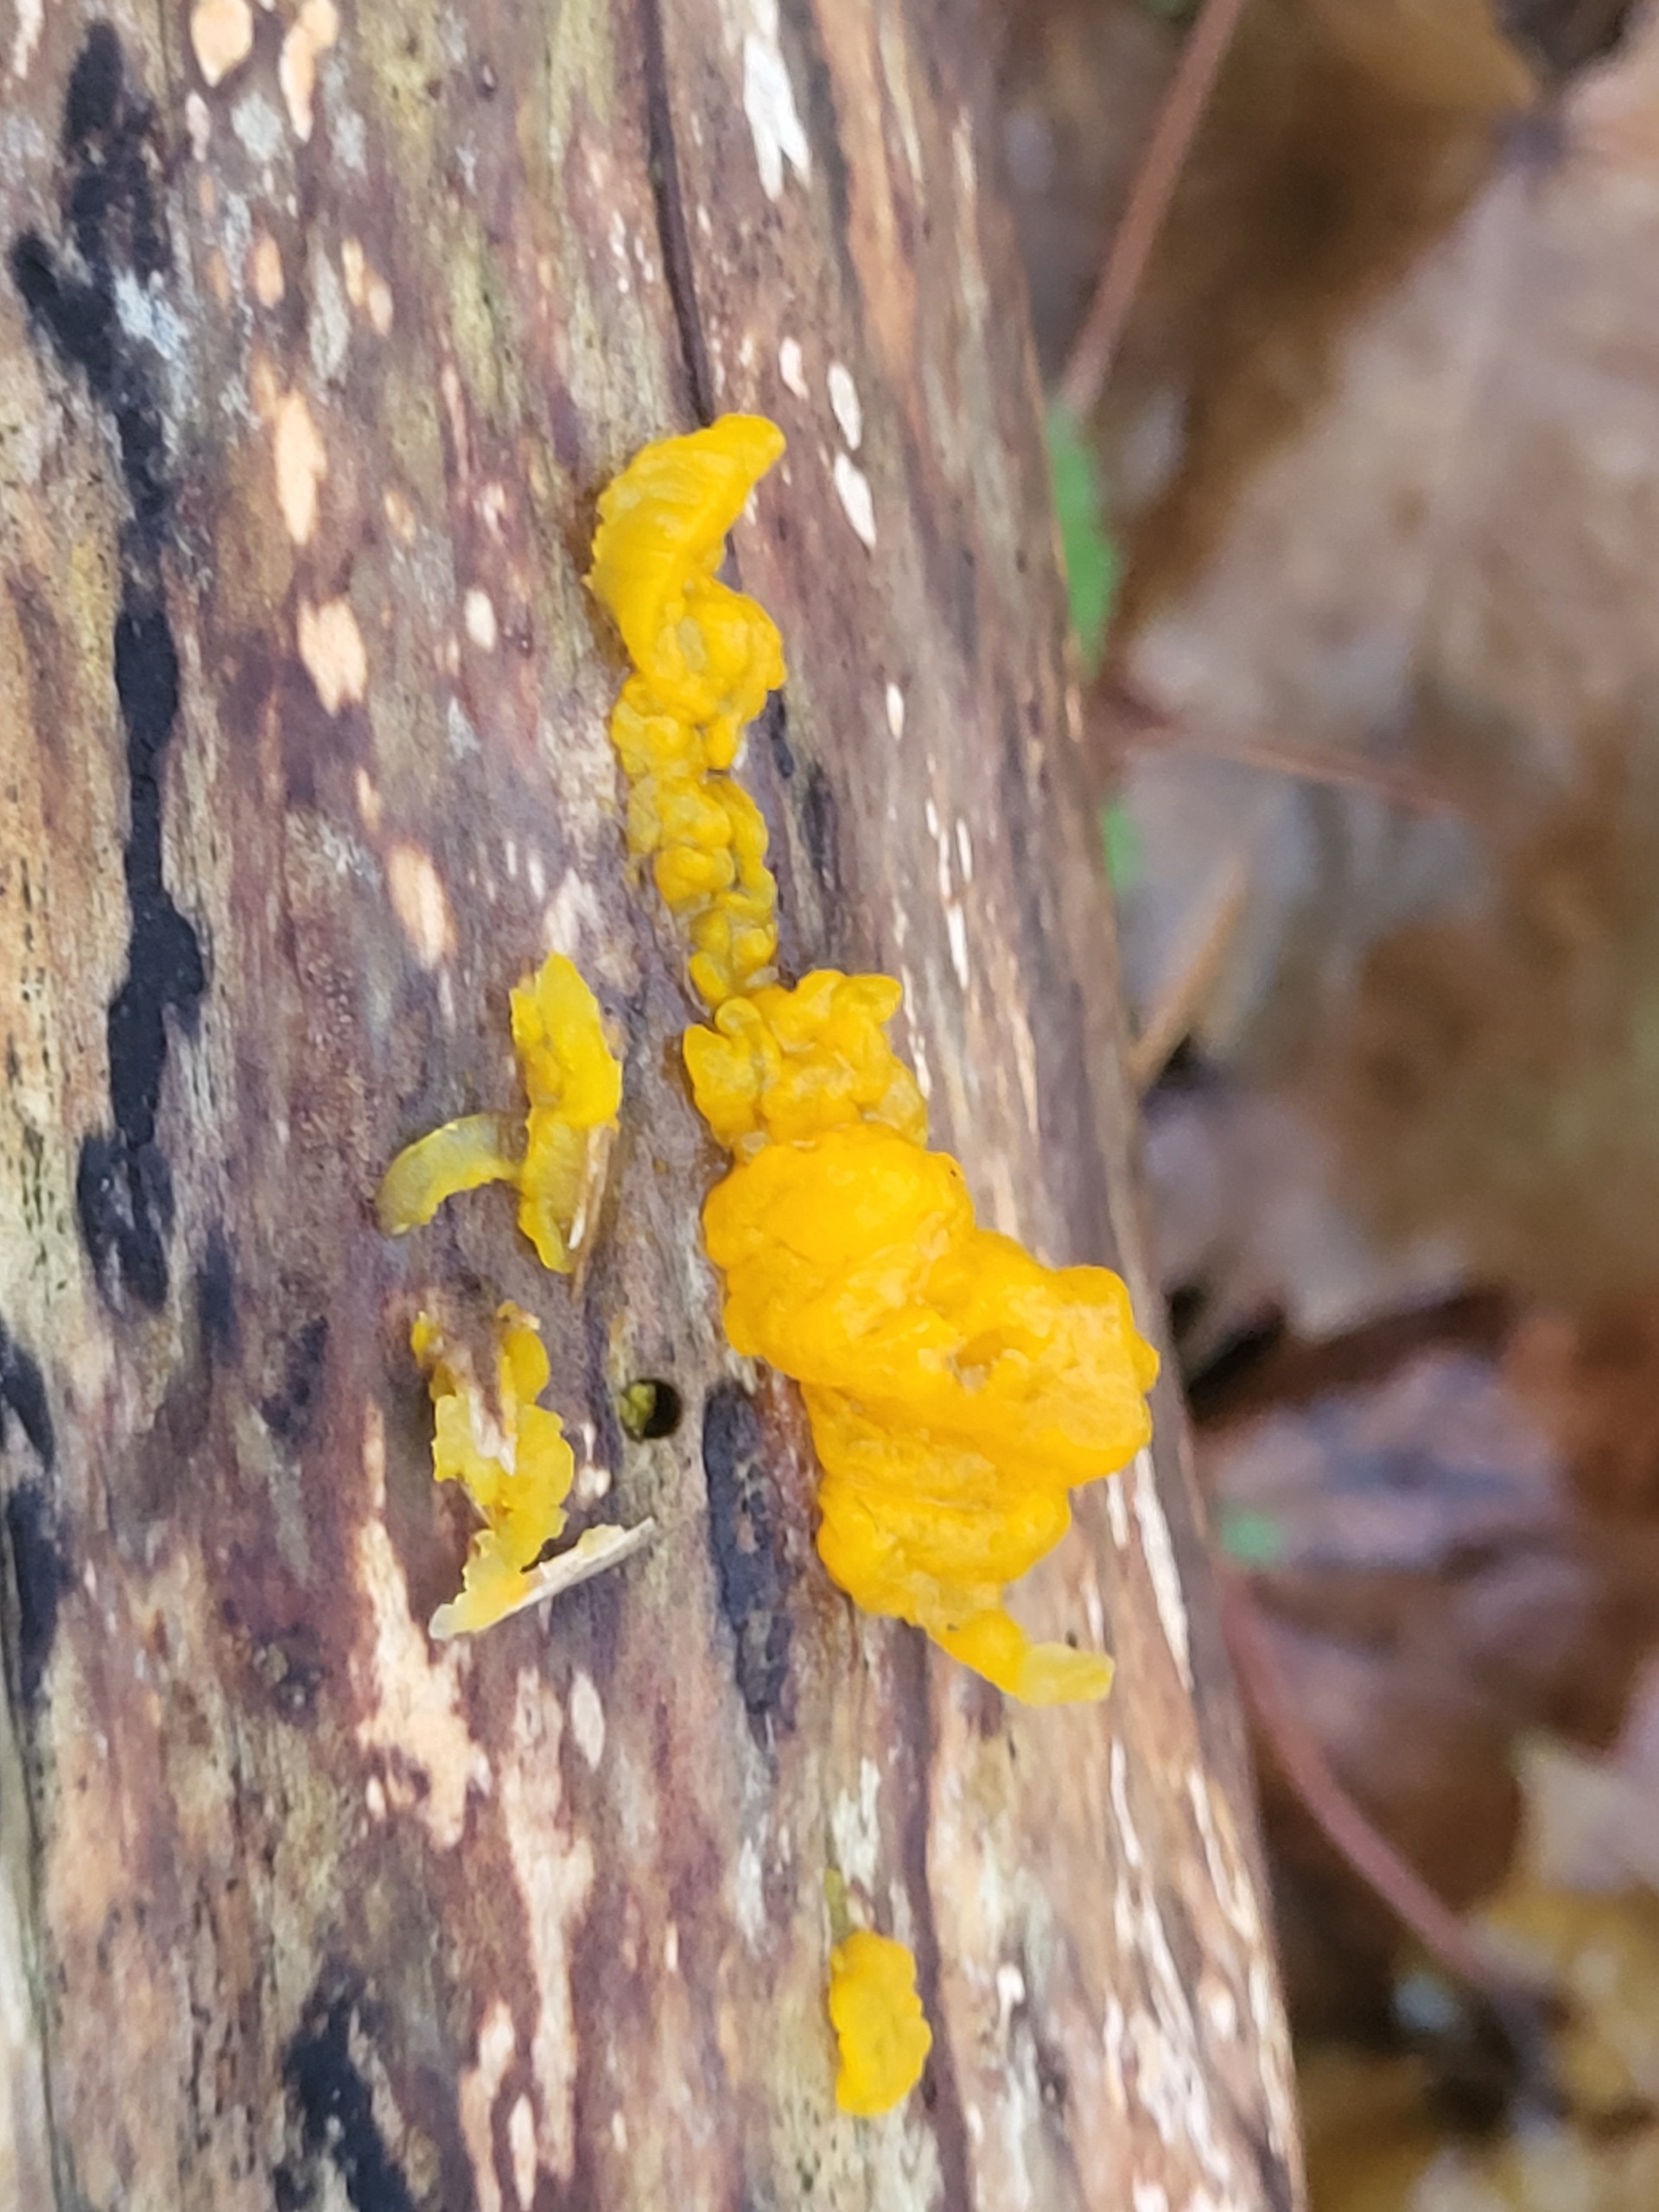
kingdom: Fungi
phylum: Basidiomycota
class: Tremellomycetes
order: Tremellales
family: Tremellaceae
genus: Tremella
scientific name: Tremella mesenterica
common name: Gul bævresvamp
